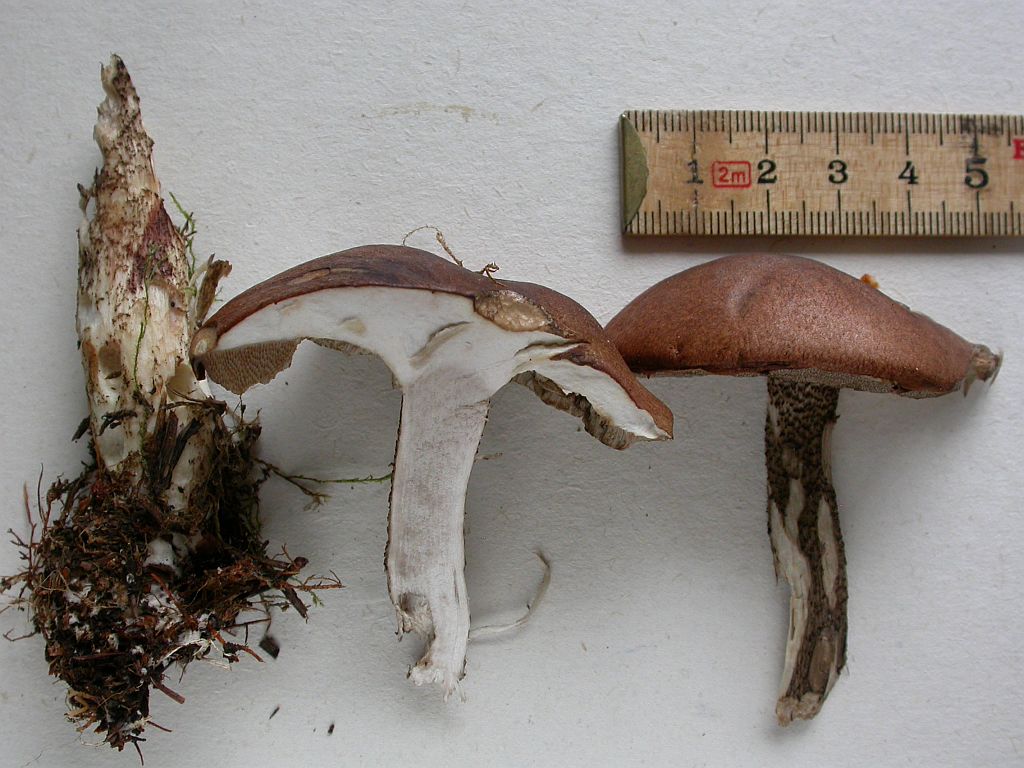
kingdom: Fungi
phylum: Basidiomycota
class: Agaricomycetes
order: Boletales
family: Boletaceae
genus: Leccinum
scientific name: Leccinum vulpinum
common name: fyrre-skælrørhat
